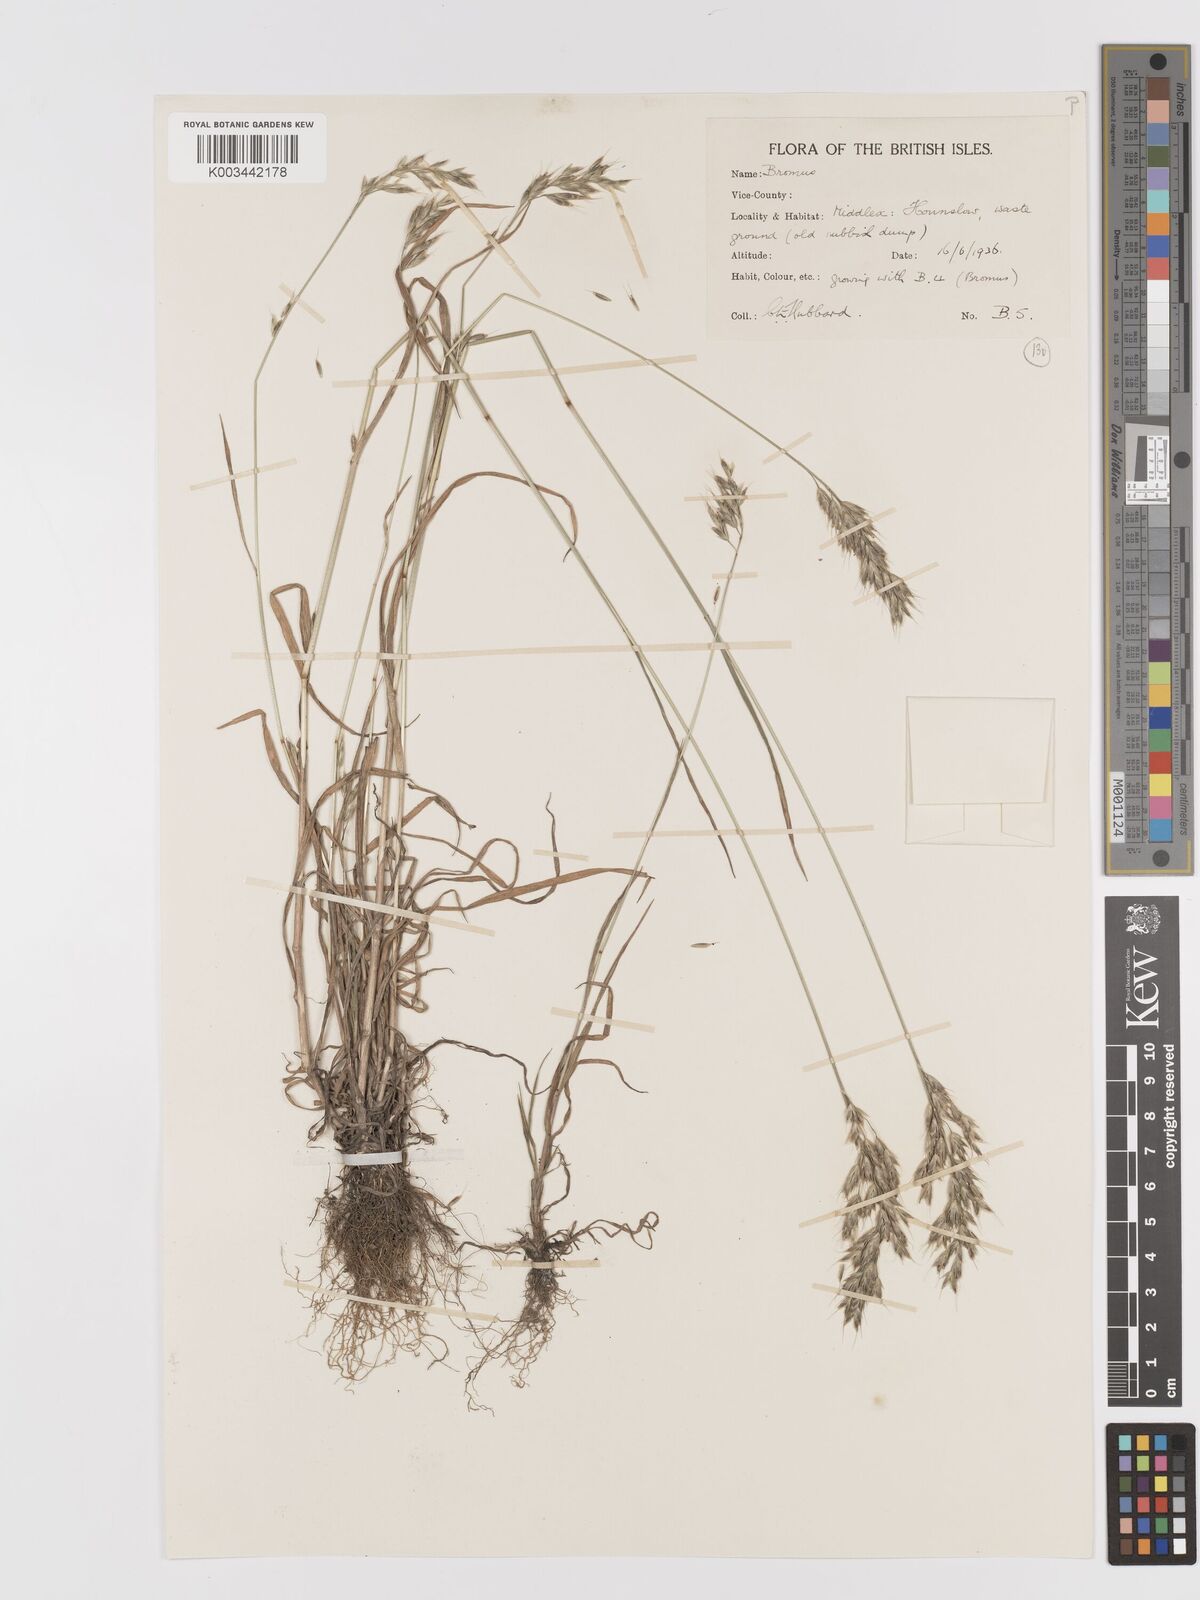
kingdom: Plantae
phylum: Tracheophyta
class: Liliopsida
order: Poales
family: Poaceae
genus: Bromus
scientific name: Bromus lepidus
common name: Slender soft-brome
